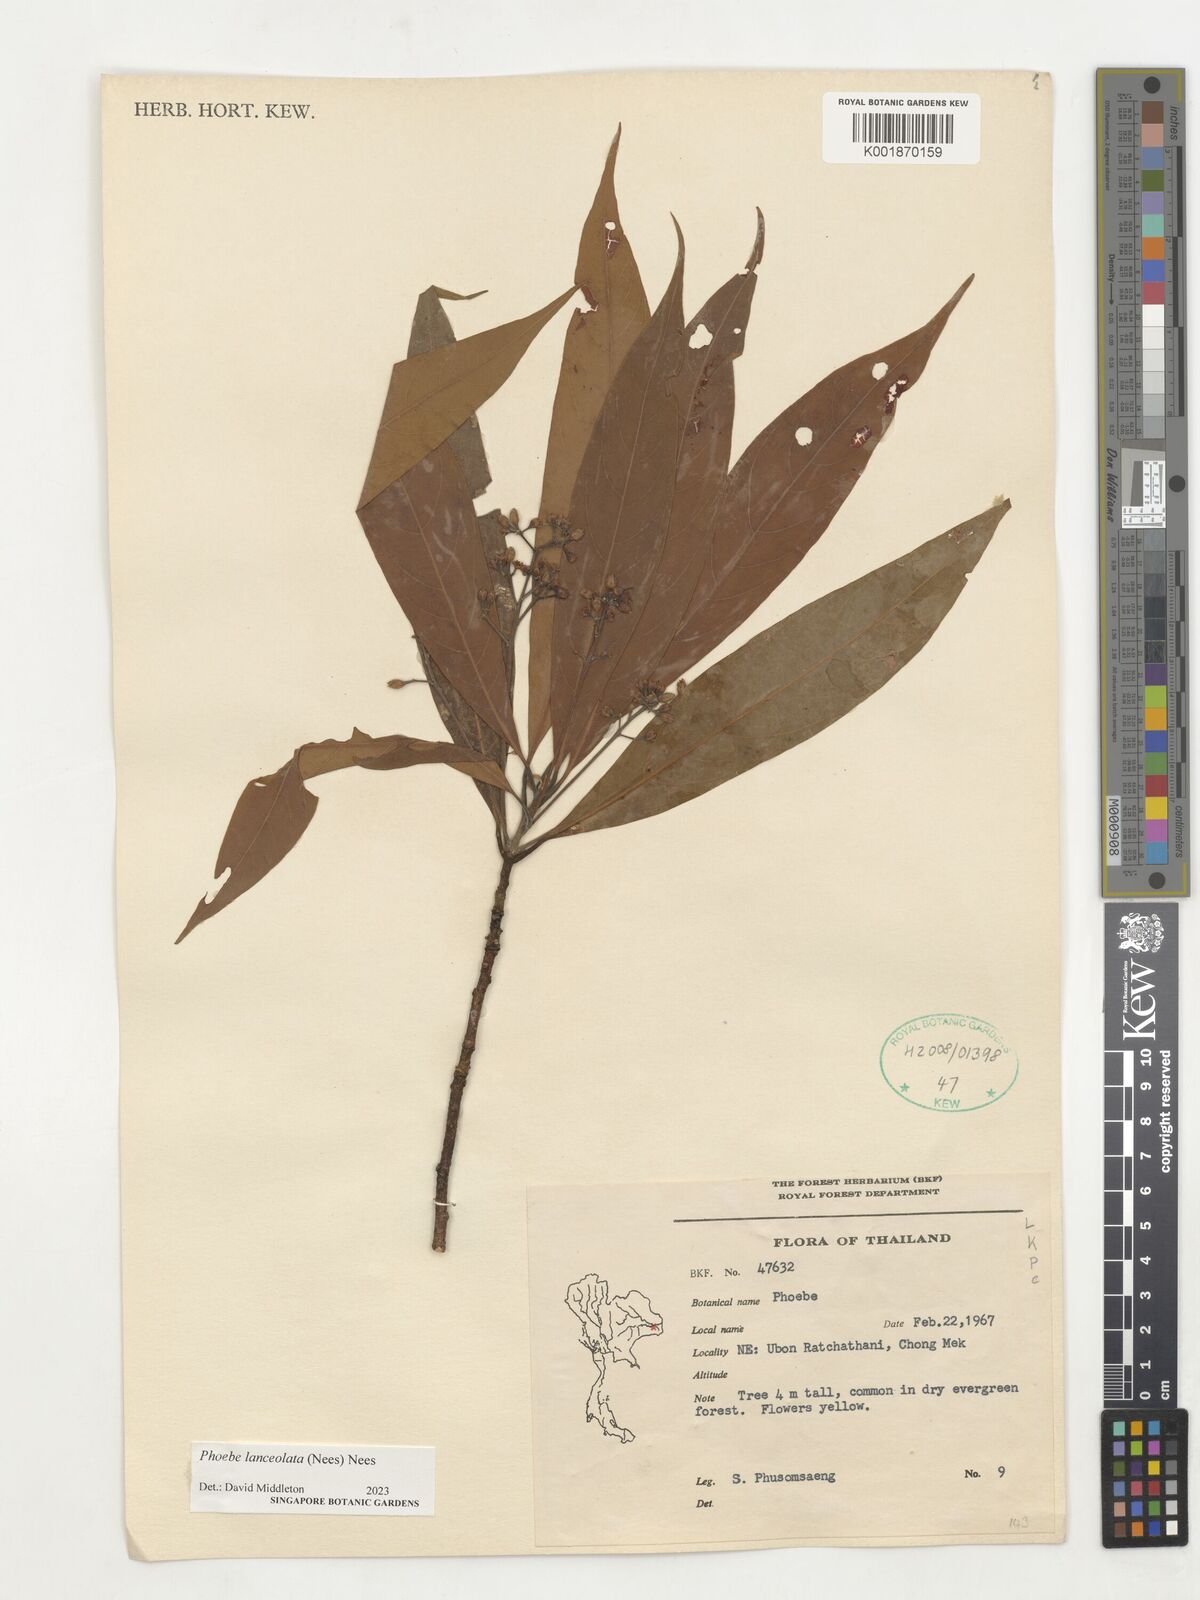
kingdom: Plantae
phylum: Tracheophyta
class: Magnoliopsida
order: Laurales
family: Lauraceae
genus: Phoebe
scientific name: Phoebe lanceolata
